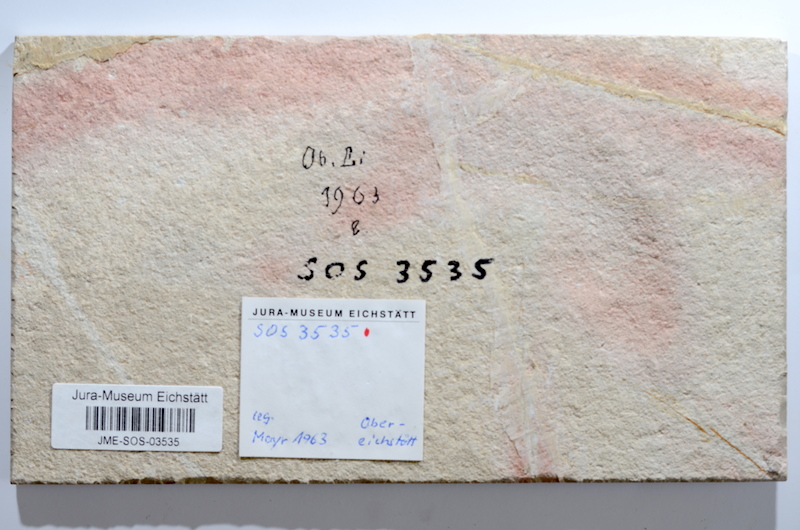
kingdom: Animalia
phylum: Chordata
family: Ascalaboidae
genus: Tharsis
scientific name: Tharsis dubius
